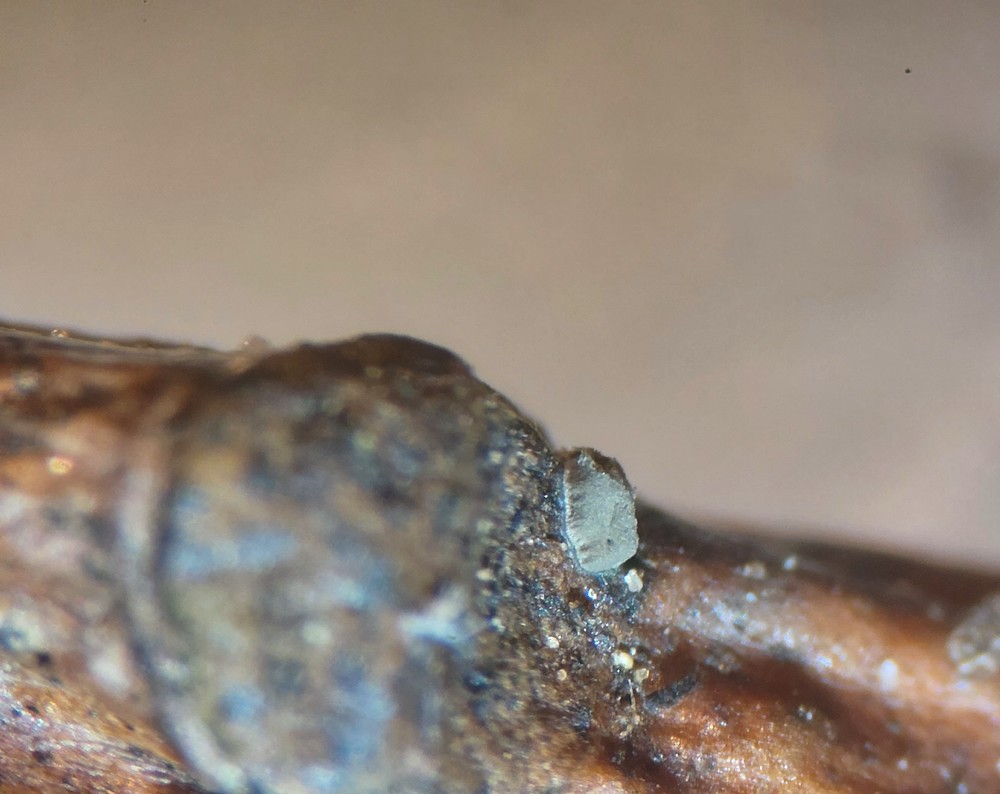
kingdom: Fungi
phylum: Ascomycota
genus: Septotrullula
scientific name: Septotrullula bacilligera
